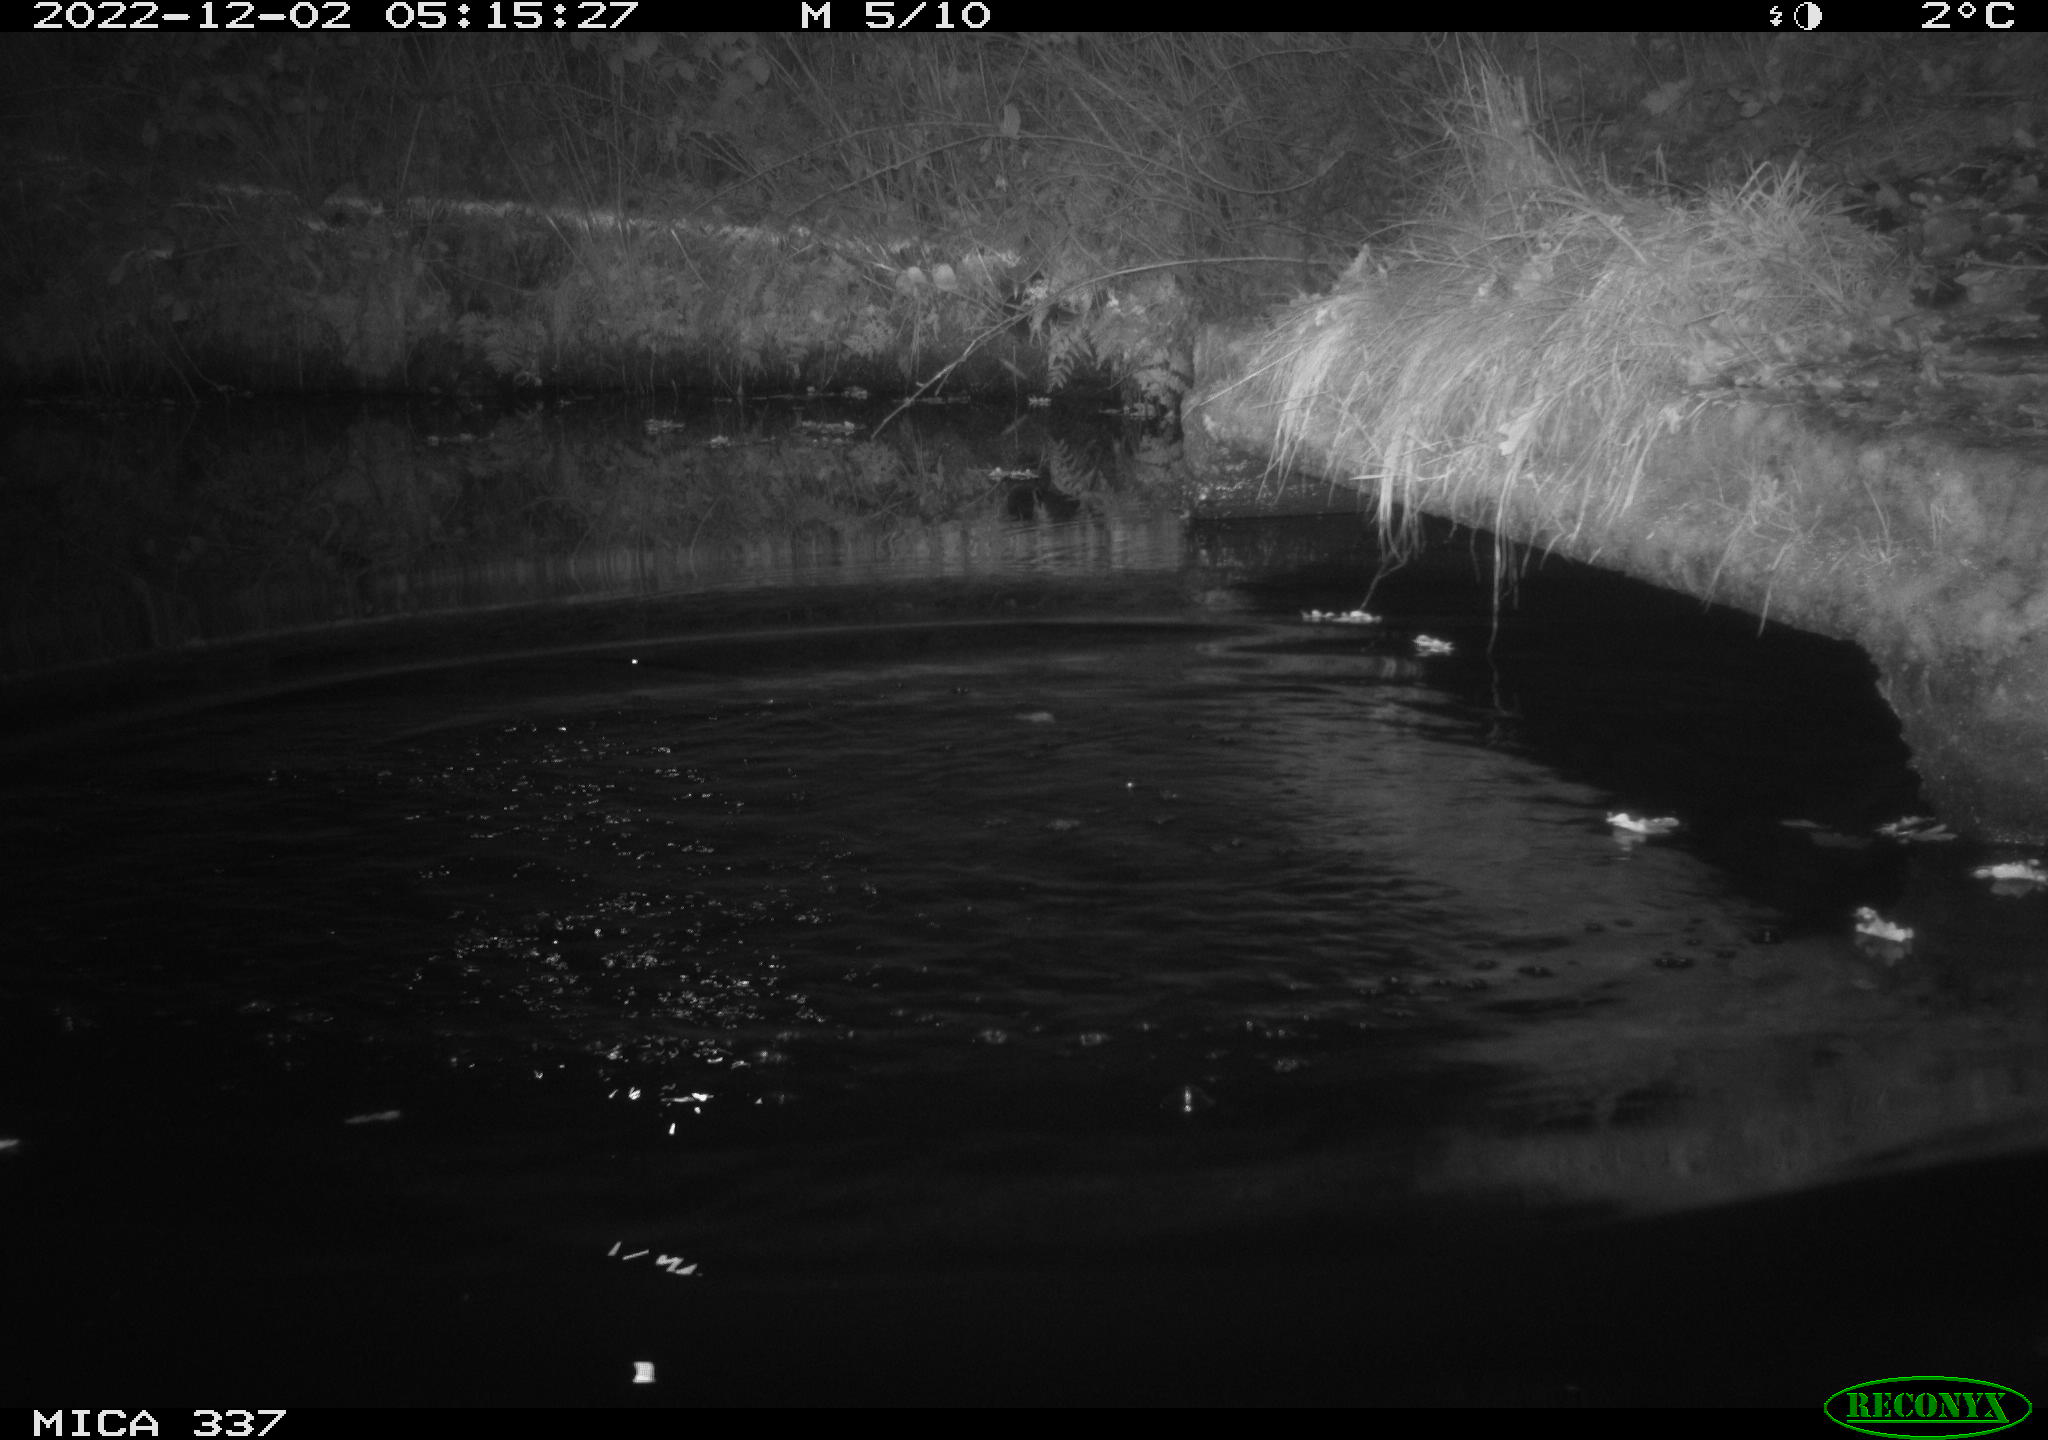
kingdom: Animalia
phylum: Chordata
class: Aves
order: Anseriformes
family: Anatidae
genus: Anas
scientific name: Anas
